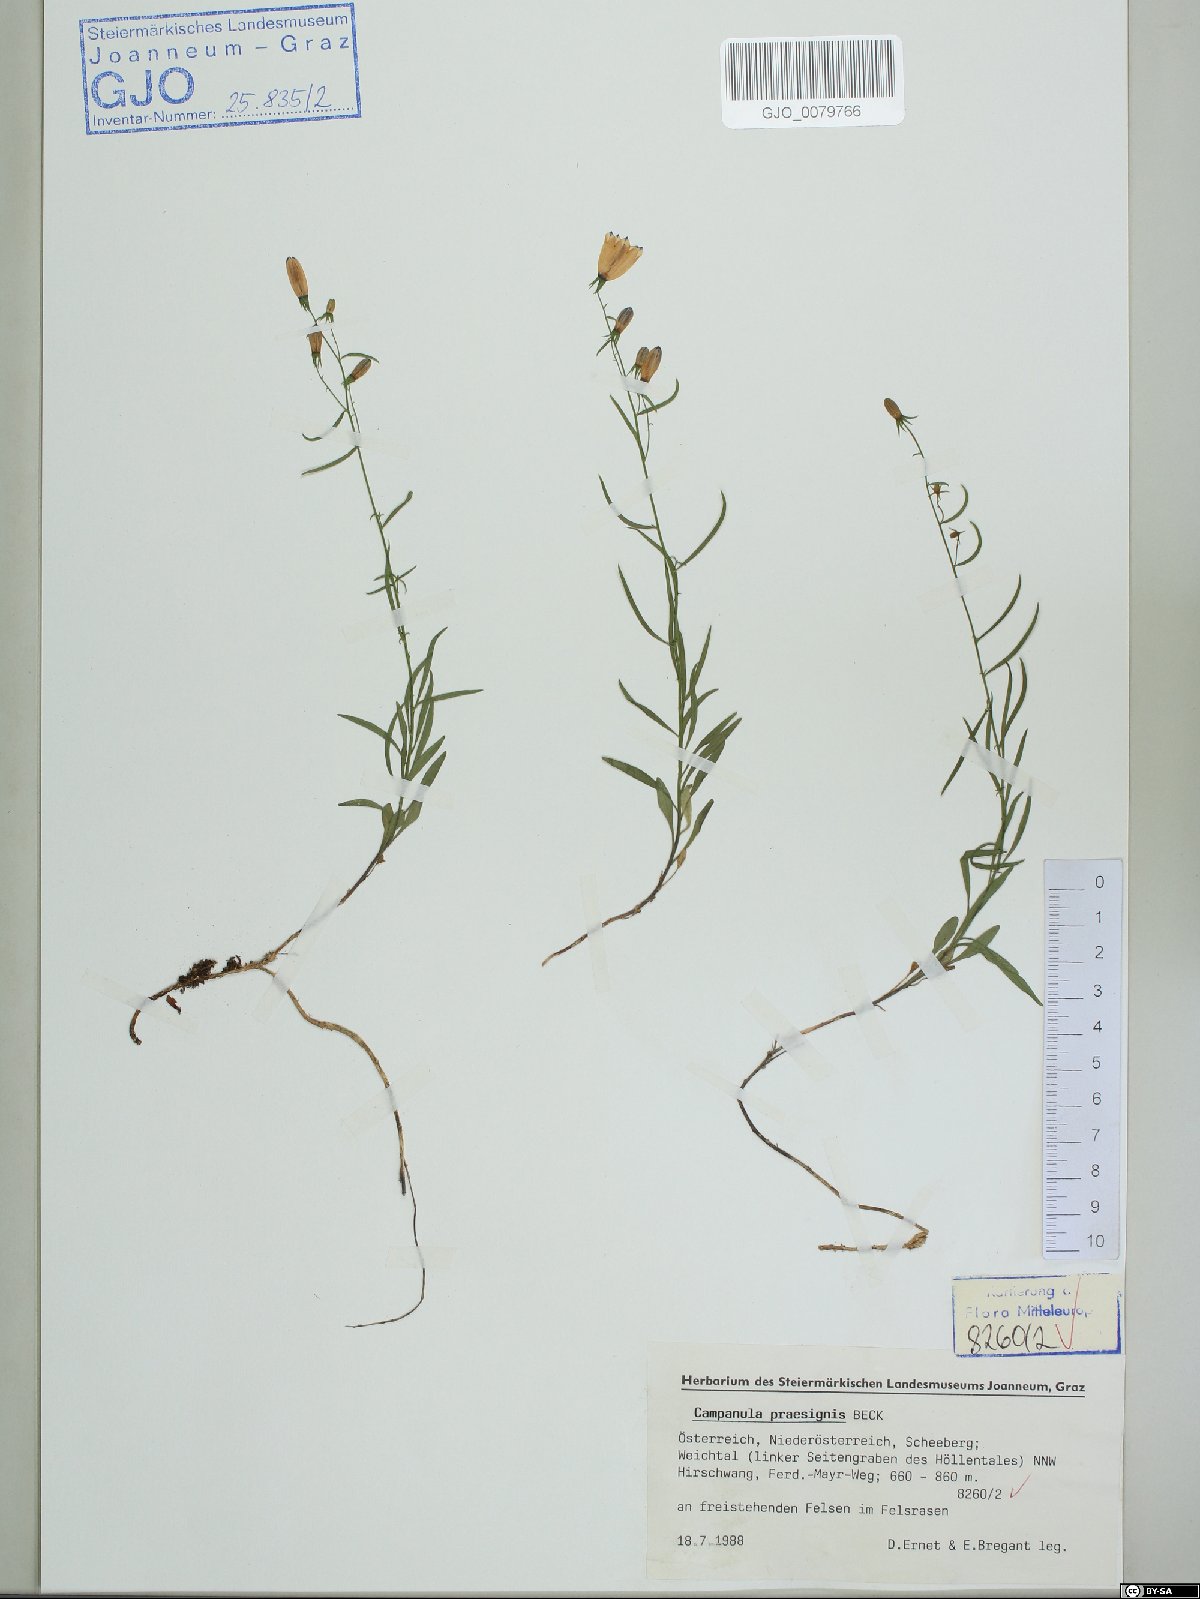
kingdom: Plantae
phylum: Tracheophyta
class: Magnoliopsida
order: Asterales
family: Campanulaceae
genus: Campanula
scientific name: Campanula praesignis
